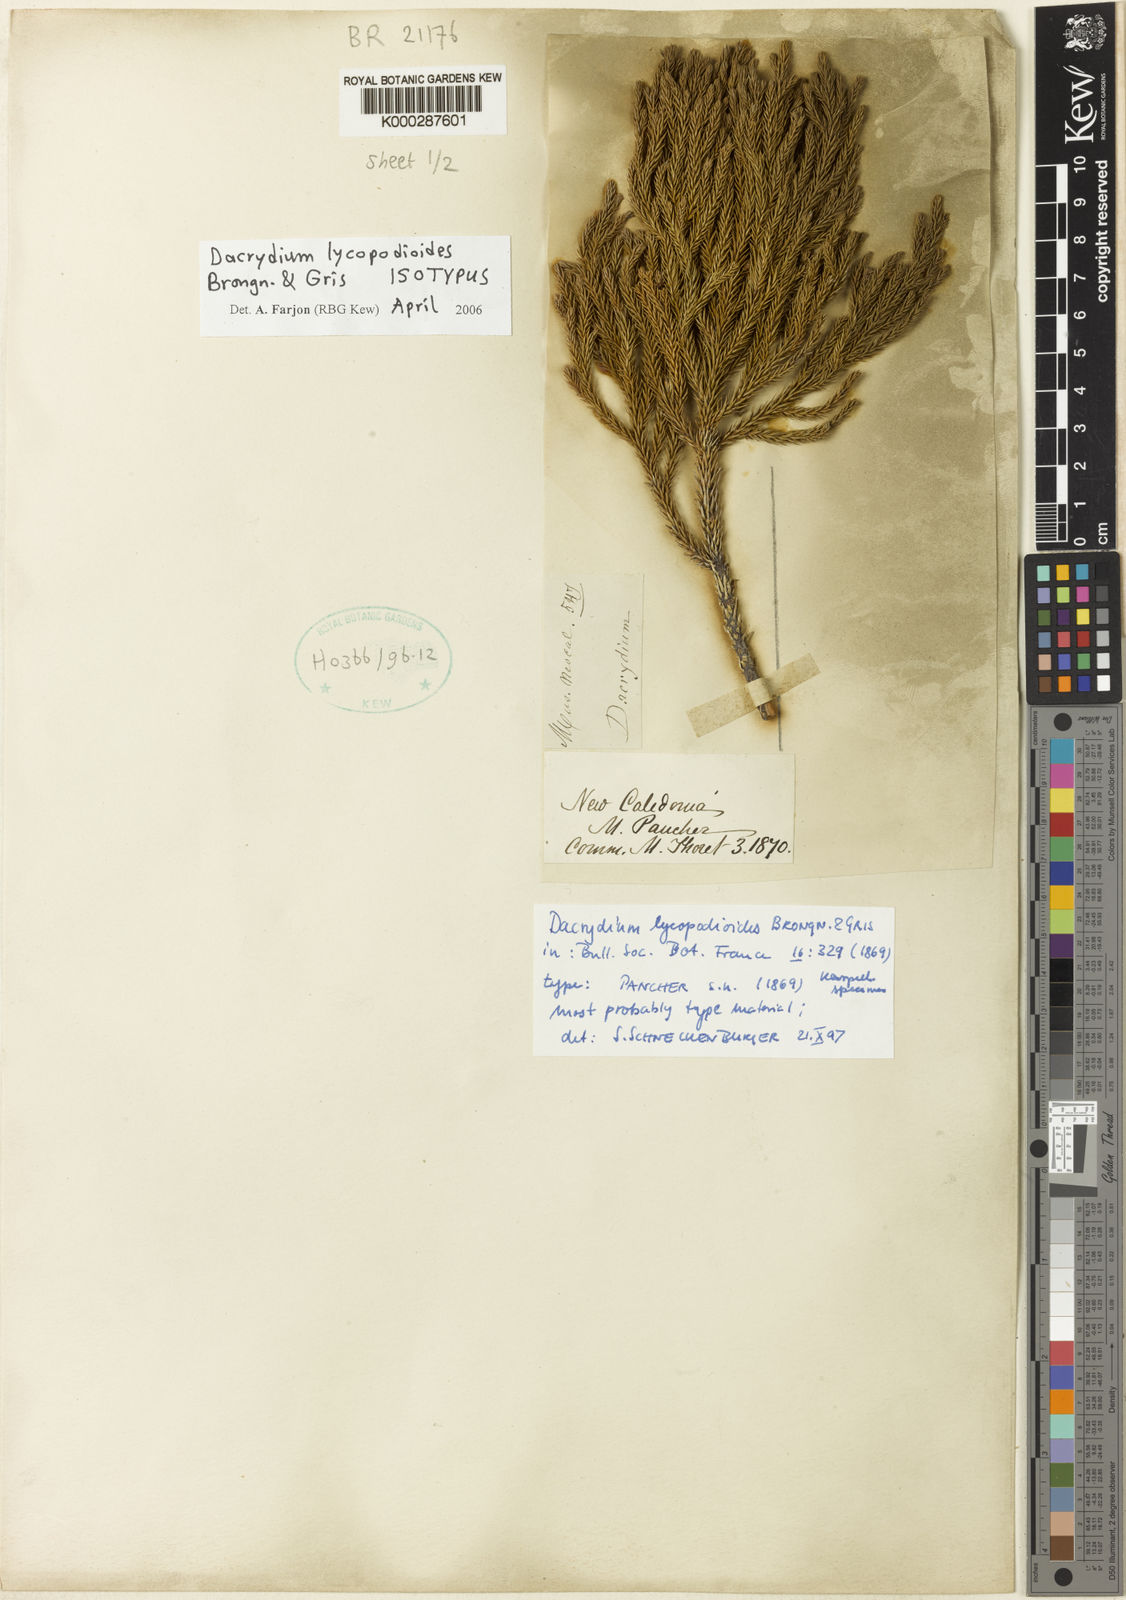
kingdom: Plantae
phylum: Tracheophyta
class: Pinopsida
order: Pinales
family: Podocarpaceae
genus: Dacrydium
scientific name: Dacrydium lycopodioides
